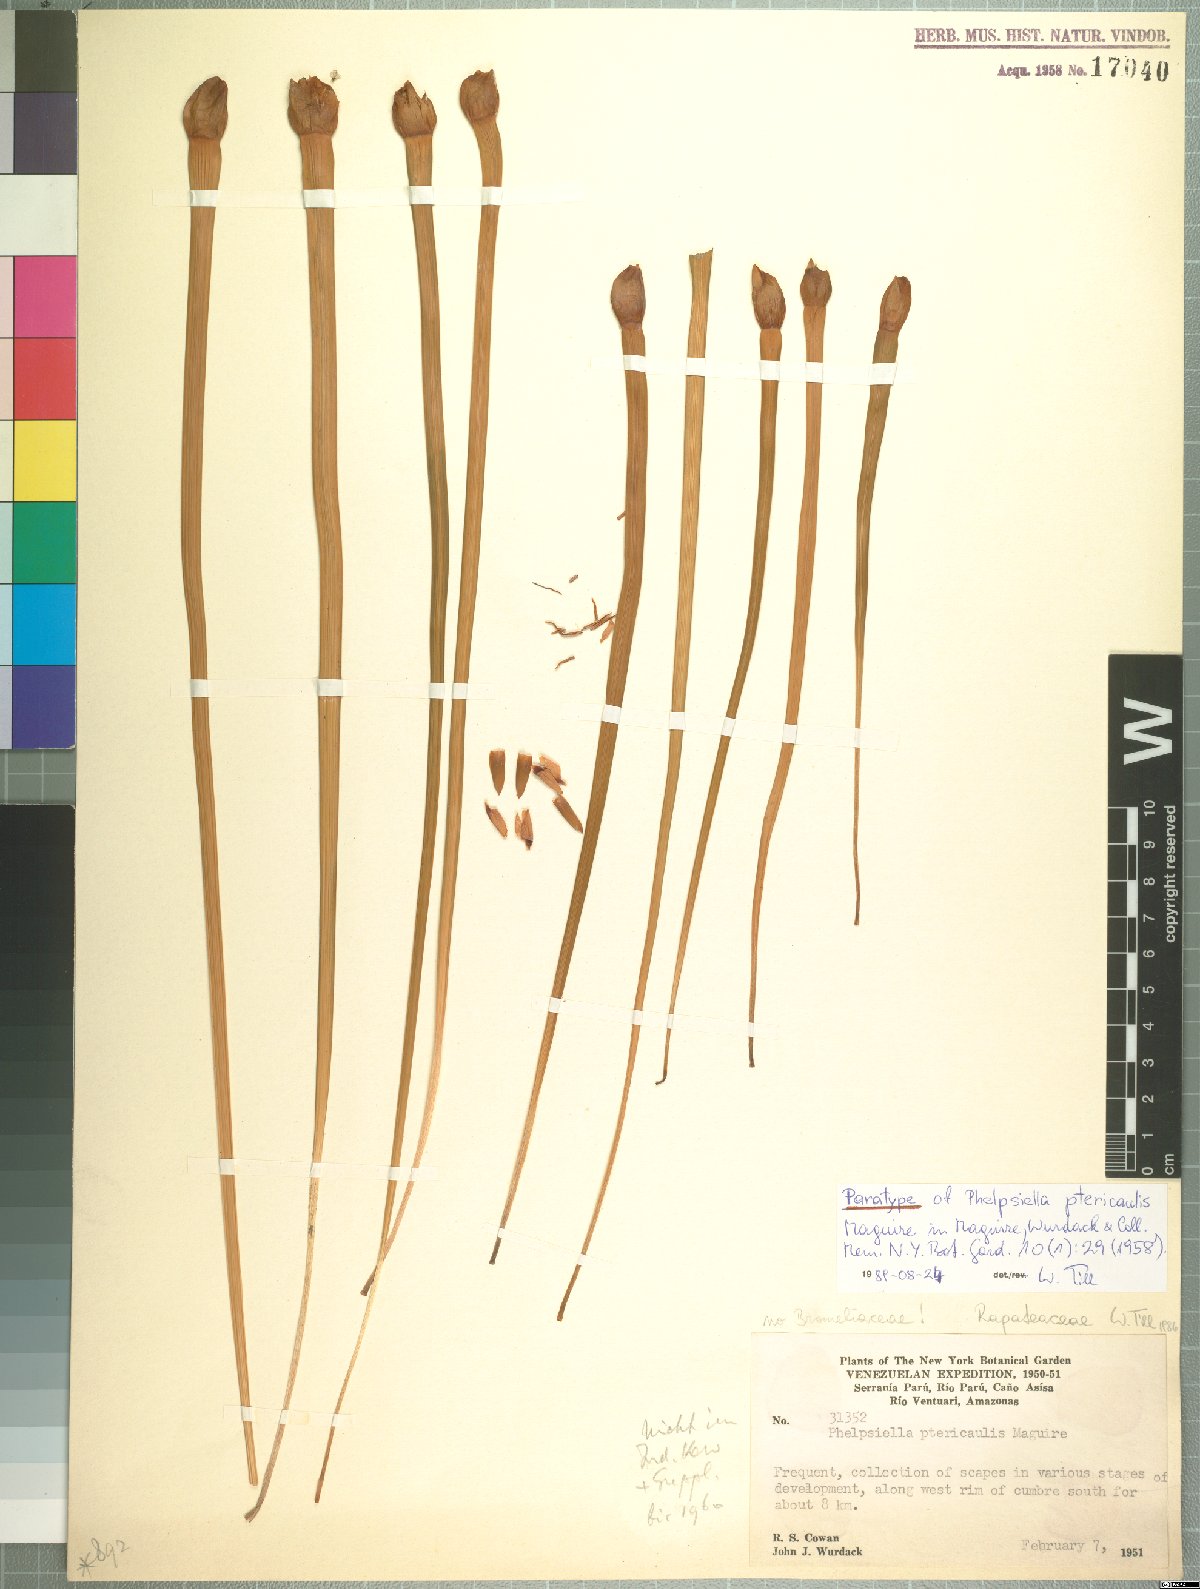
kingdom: Plantae
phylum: Tracheophyta
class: Liliopsida
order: Poales
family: Rapateaceae
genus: Phelpsiella
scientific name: Phelpsiella ptericaulis
